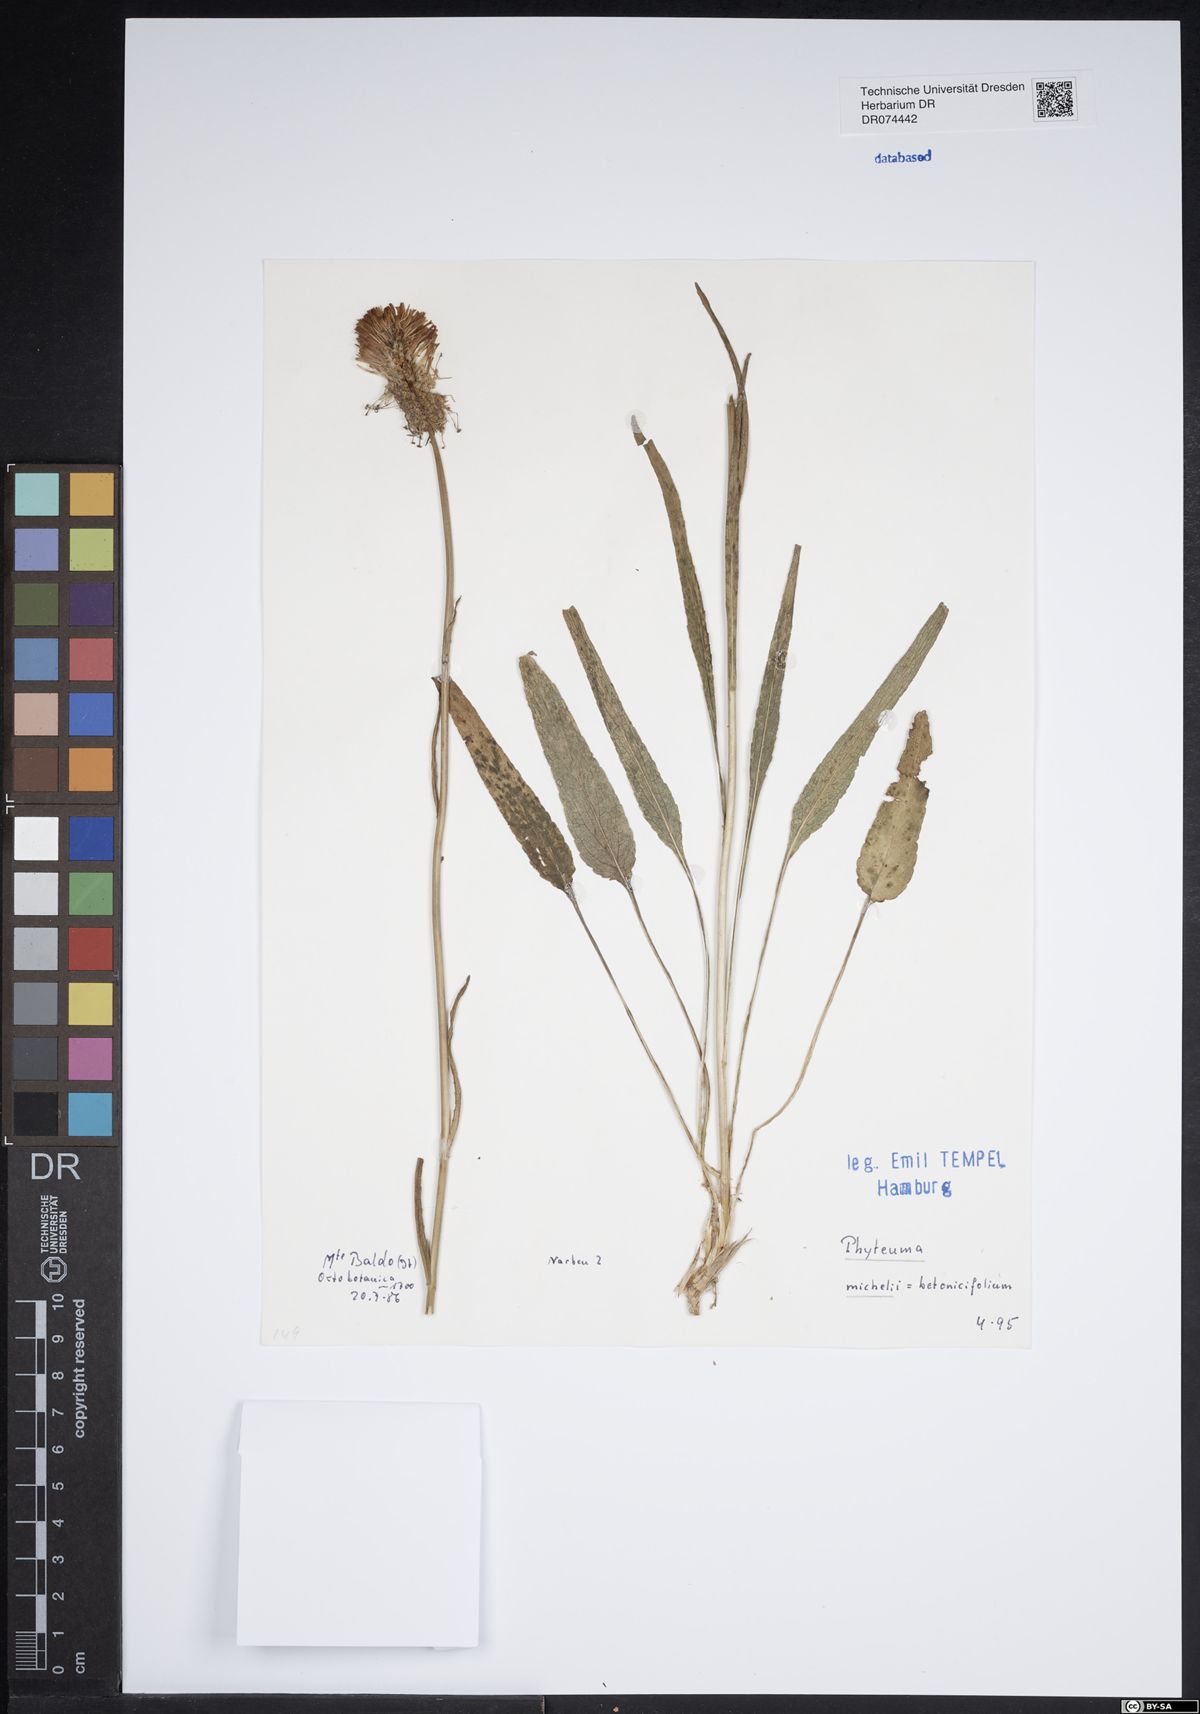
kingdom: Plantae
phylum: Tracheophyta
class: Magnoliopsida
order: Asterales
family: Campanulaceae
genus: Phyteuma
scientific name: Phyteuma michelii
